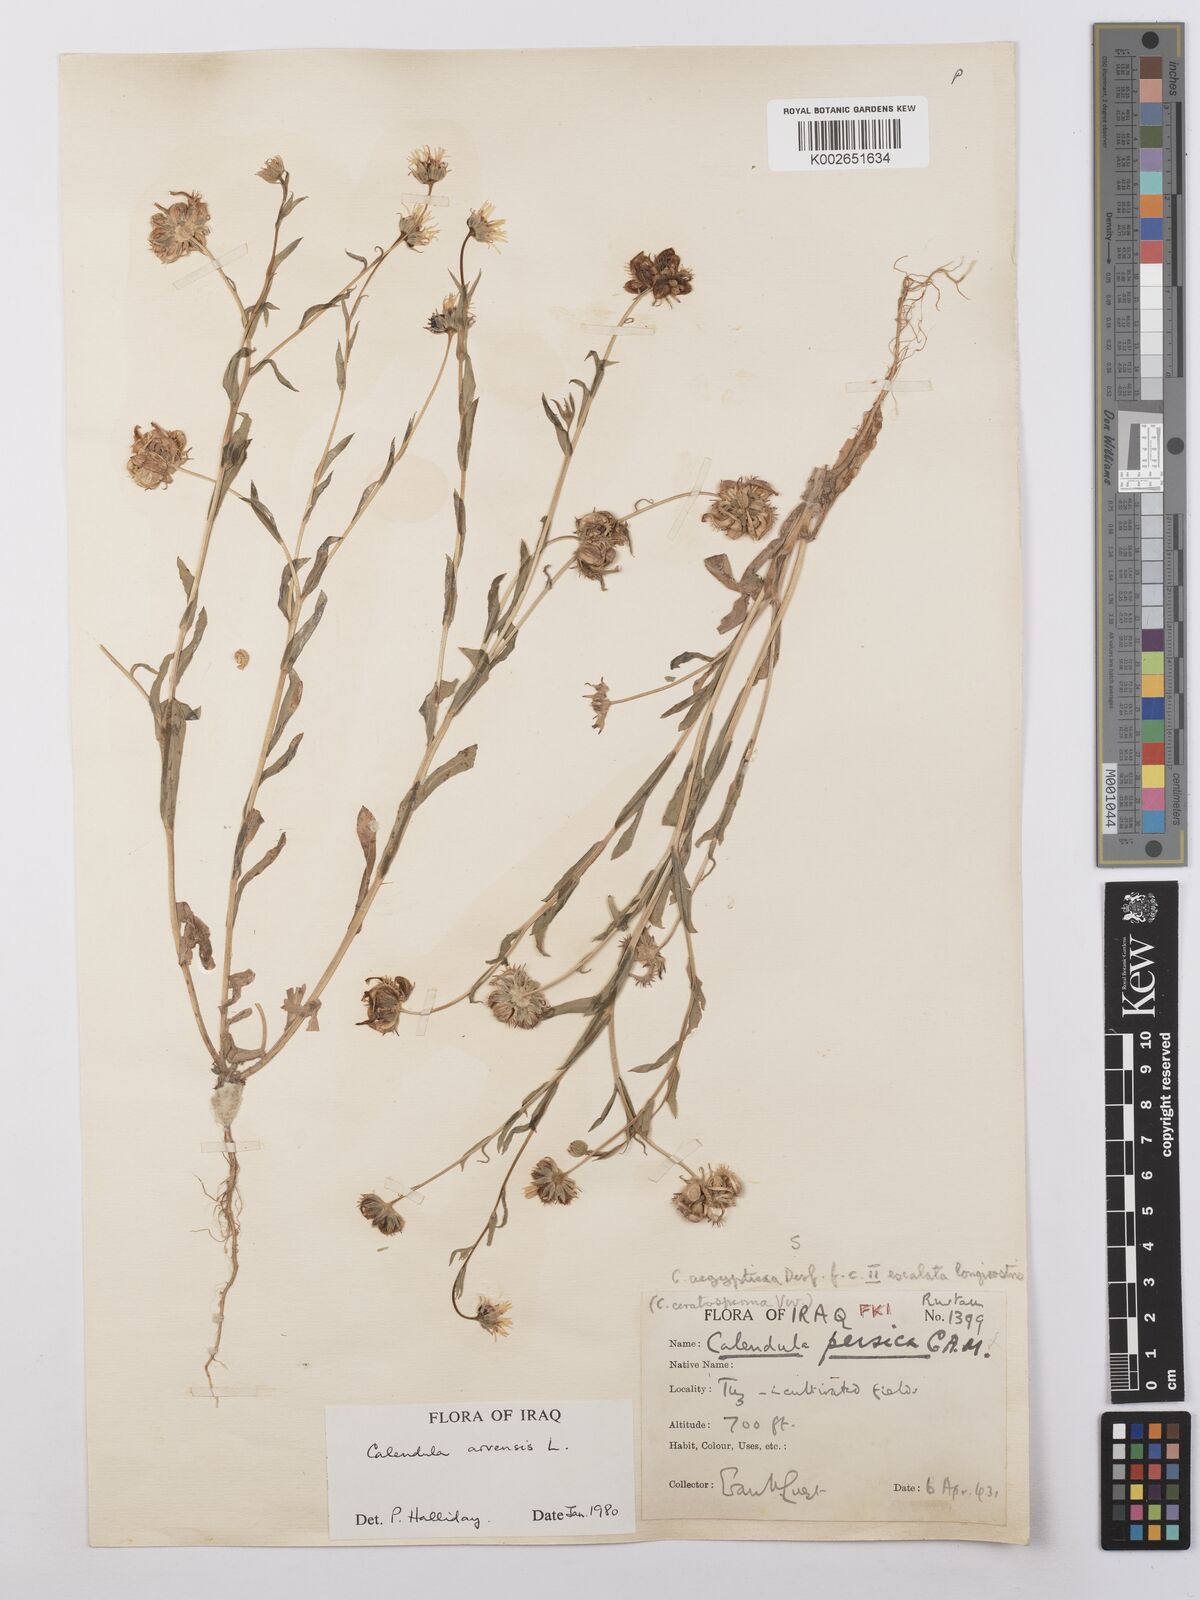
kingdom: Plantae
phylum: Tracheophyta
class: Magnoliopsida
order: Asterales
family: Asteraceae
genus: Calendula
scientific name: Calendula arvensis
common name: Field marigold
